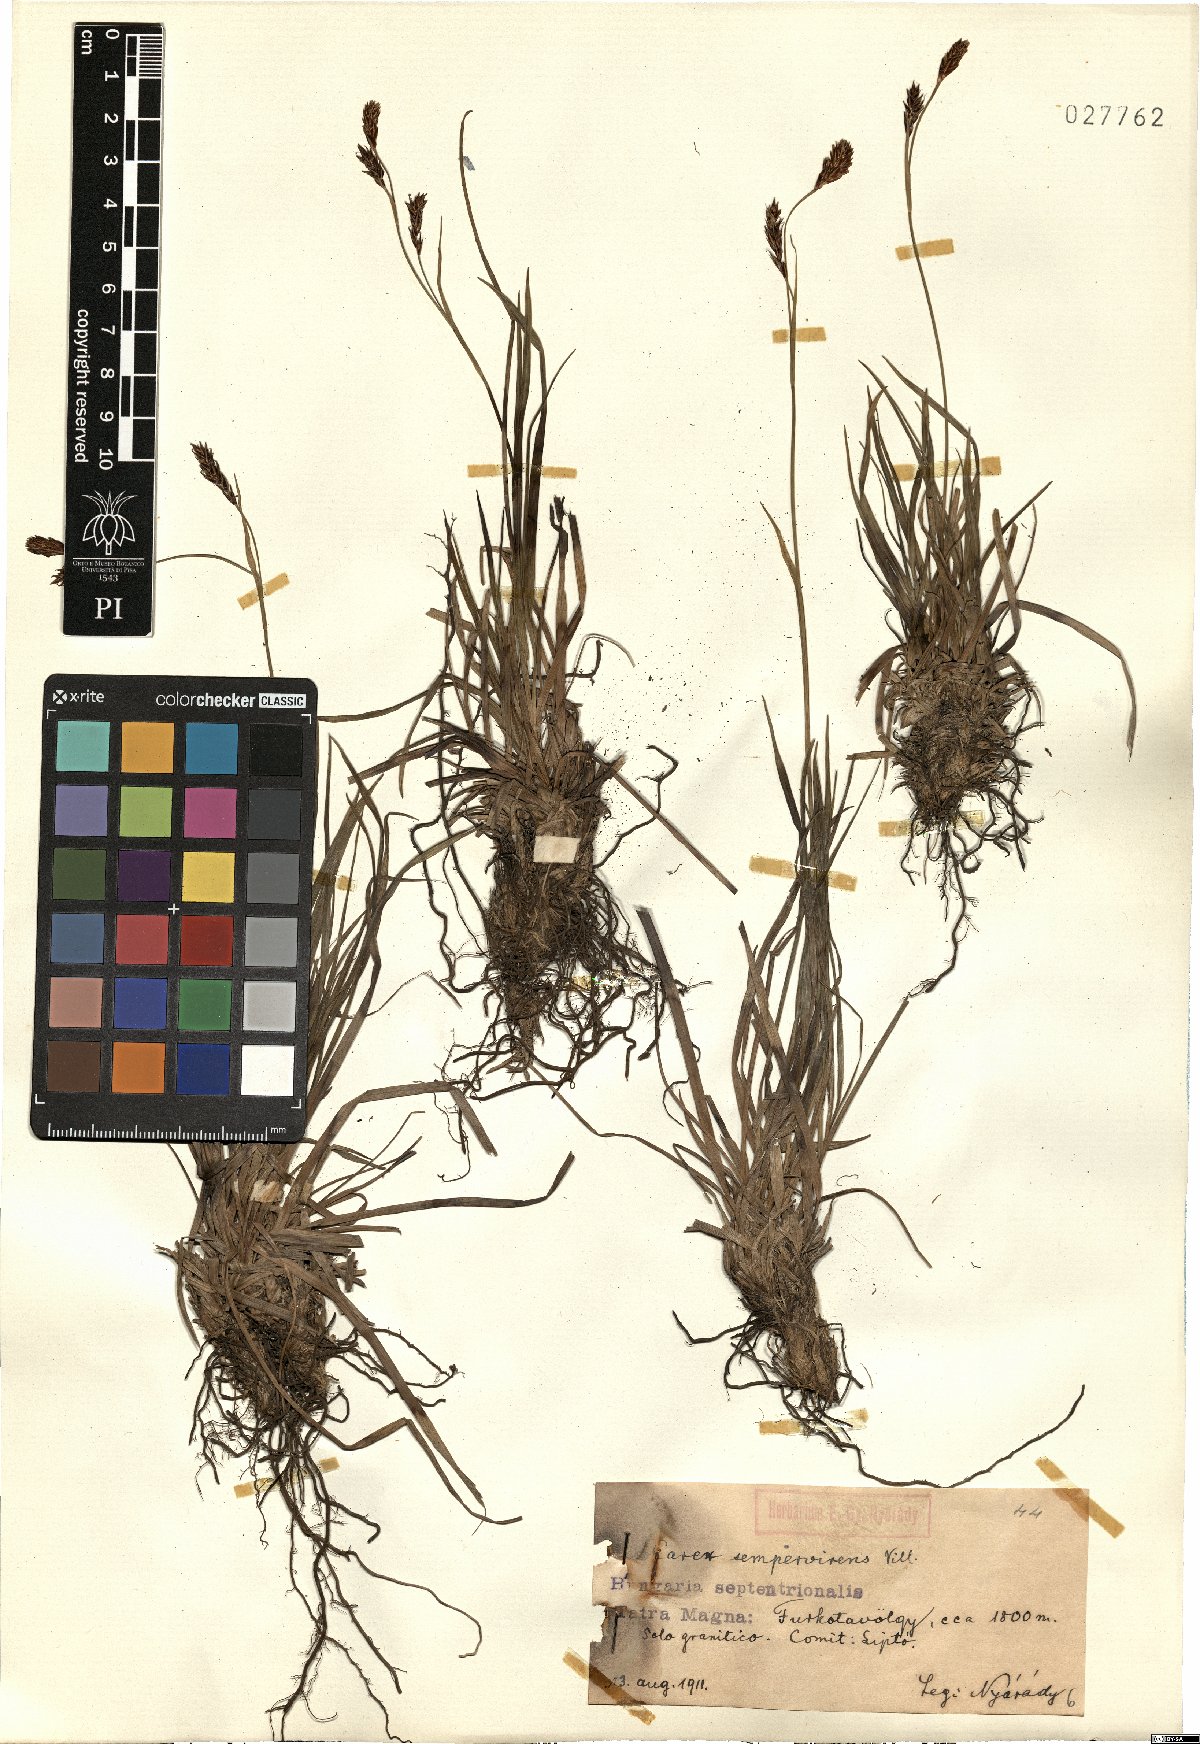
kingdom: Plantae
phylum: Tracheophyta
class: Liliopsida
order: Poales
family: Cyperaceae
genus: Carex
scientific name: Carex sempervirens
